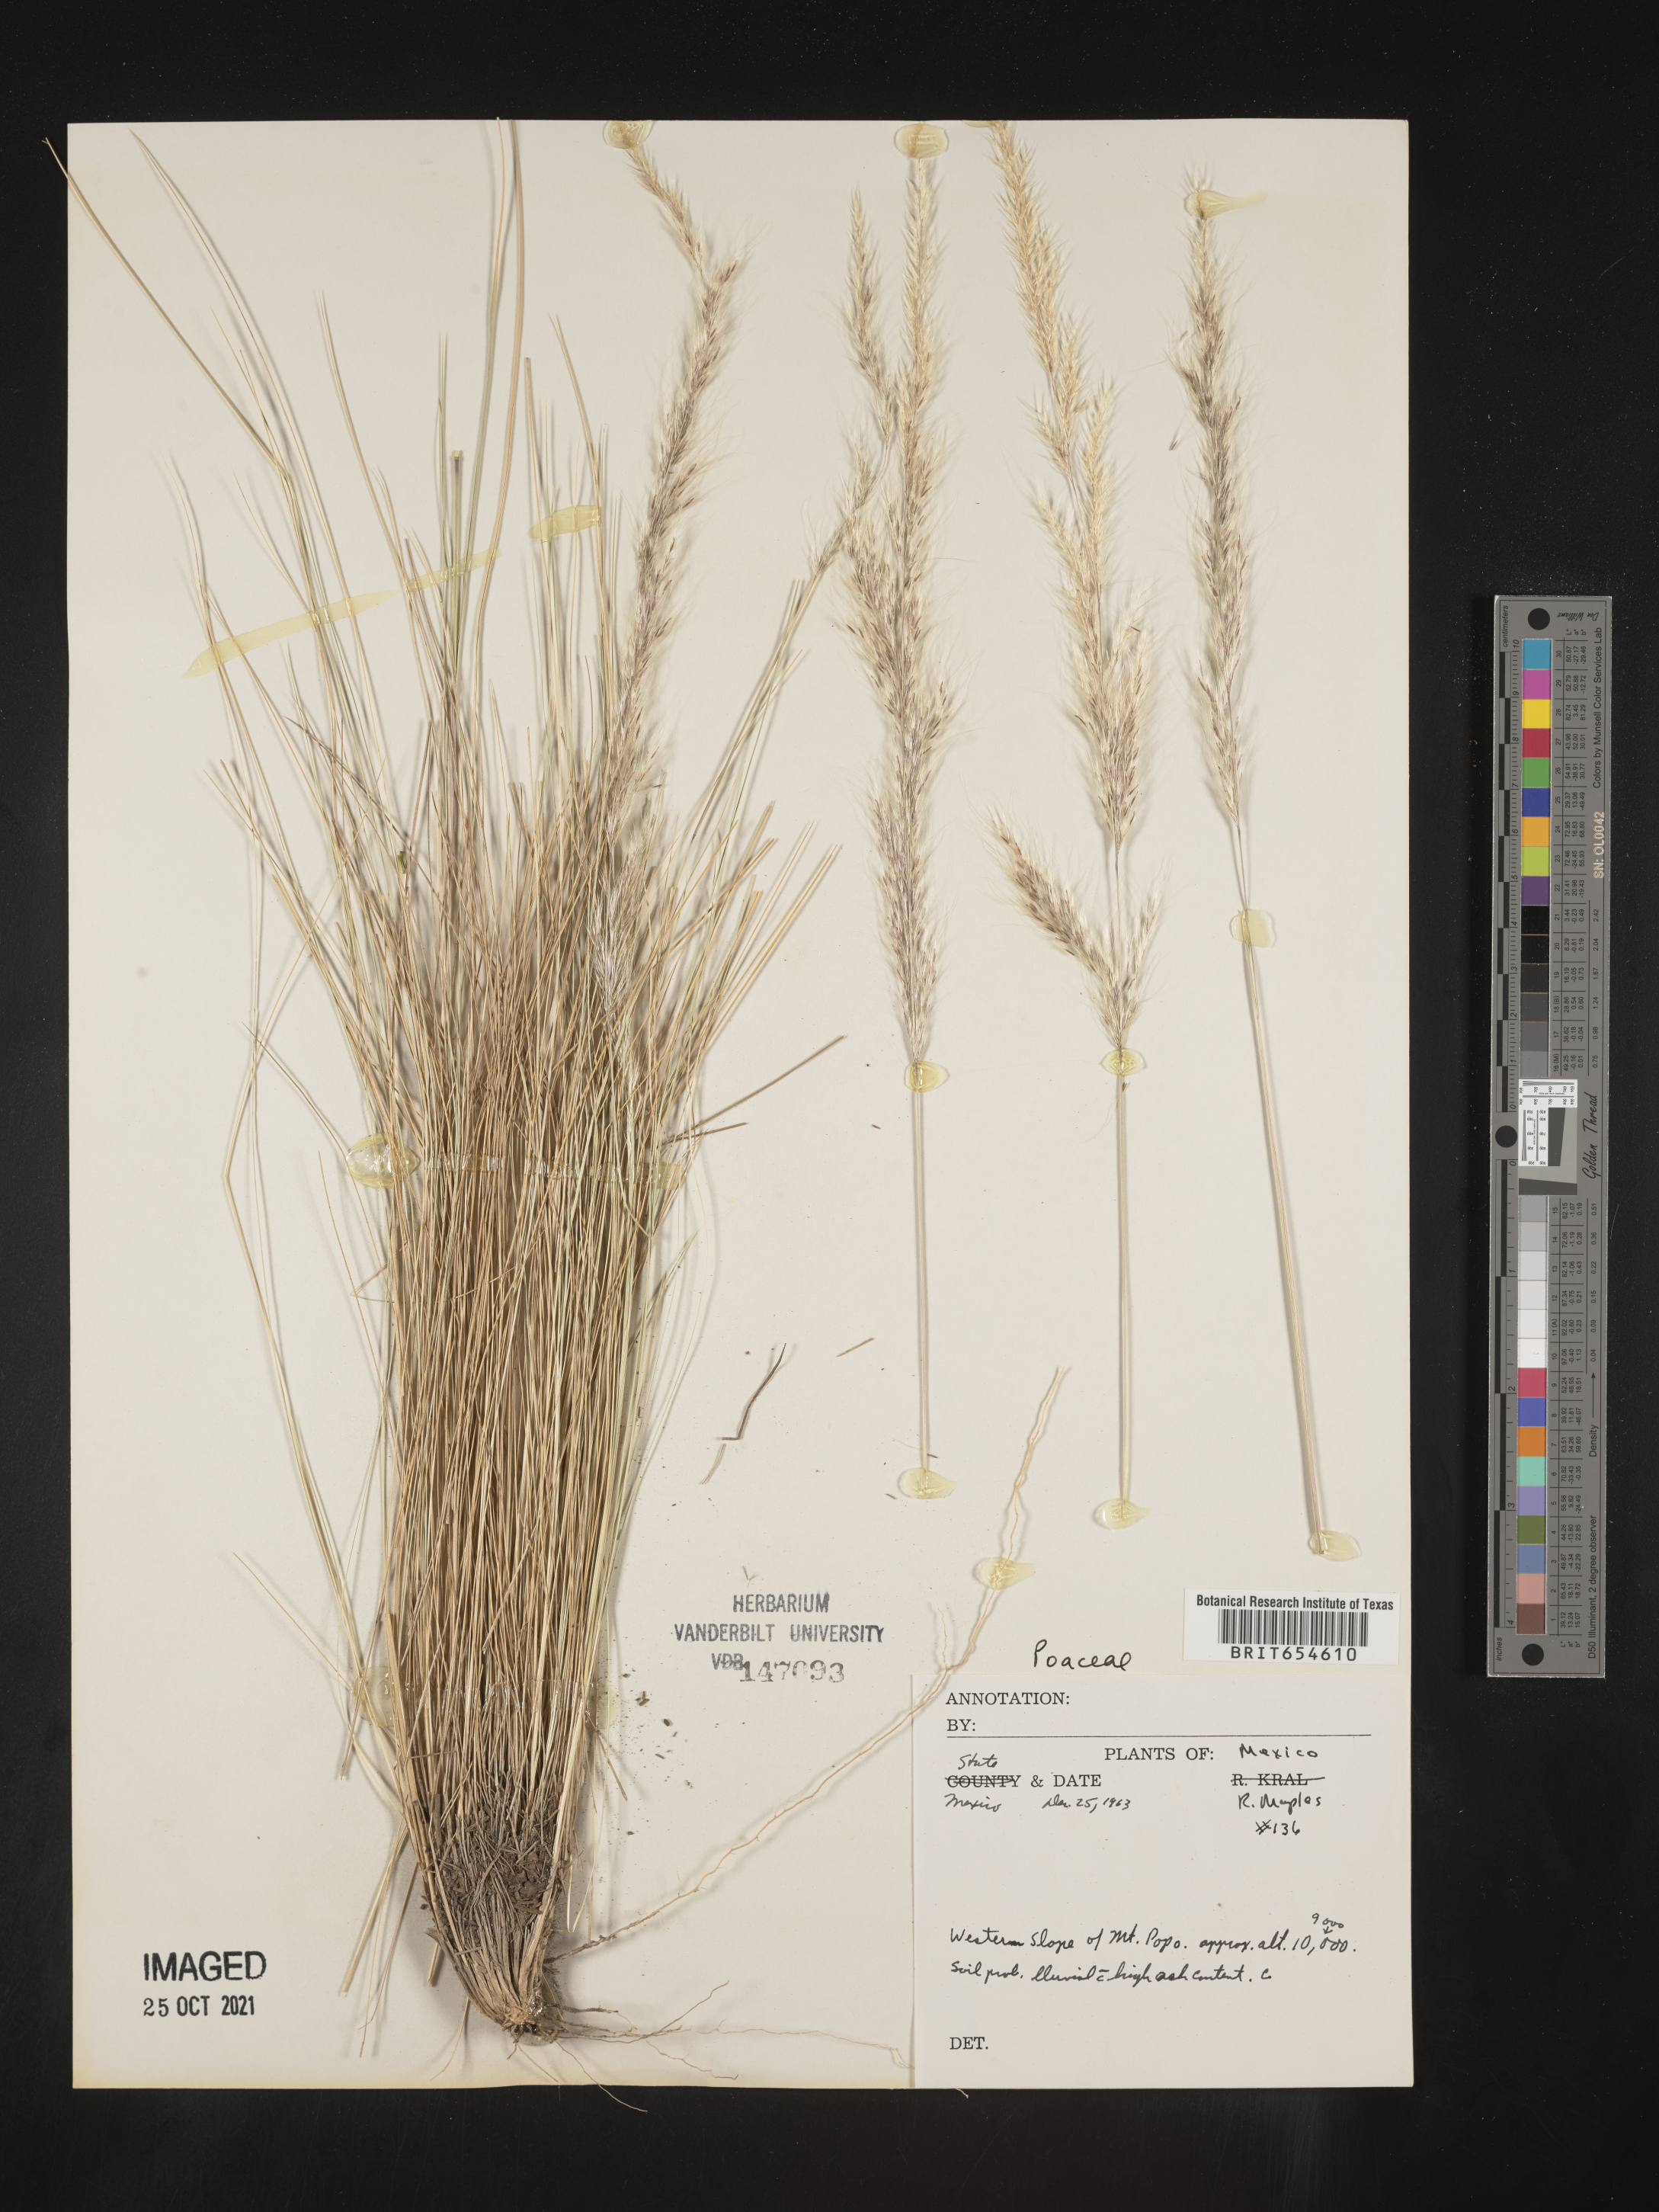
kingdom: Plantae
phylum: Tracheophyta
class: Liliopsida
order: Poales
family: Poaceae
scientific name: Poaceae
